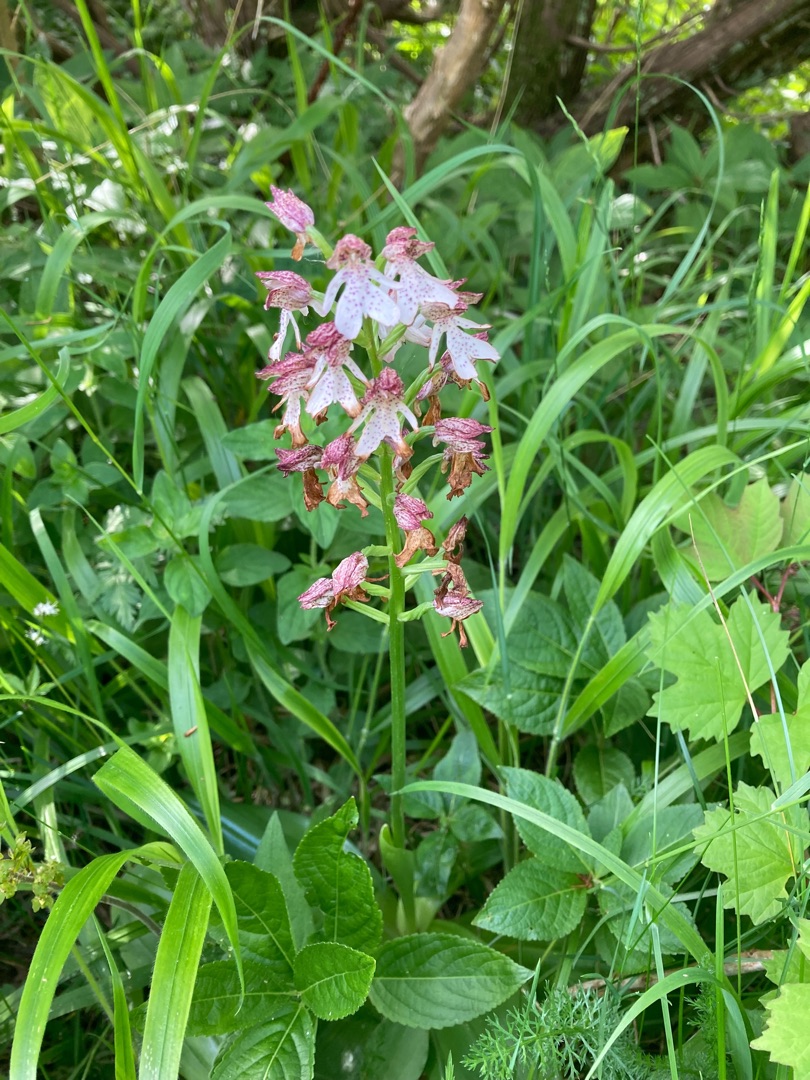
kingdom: Plantae
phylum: Tracheophyta
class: Liliopsida
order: Asparagales
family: Orchidaceae
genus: Orchis
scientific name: Orchis purpurea
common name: Stor gøgeurt
